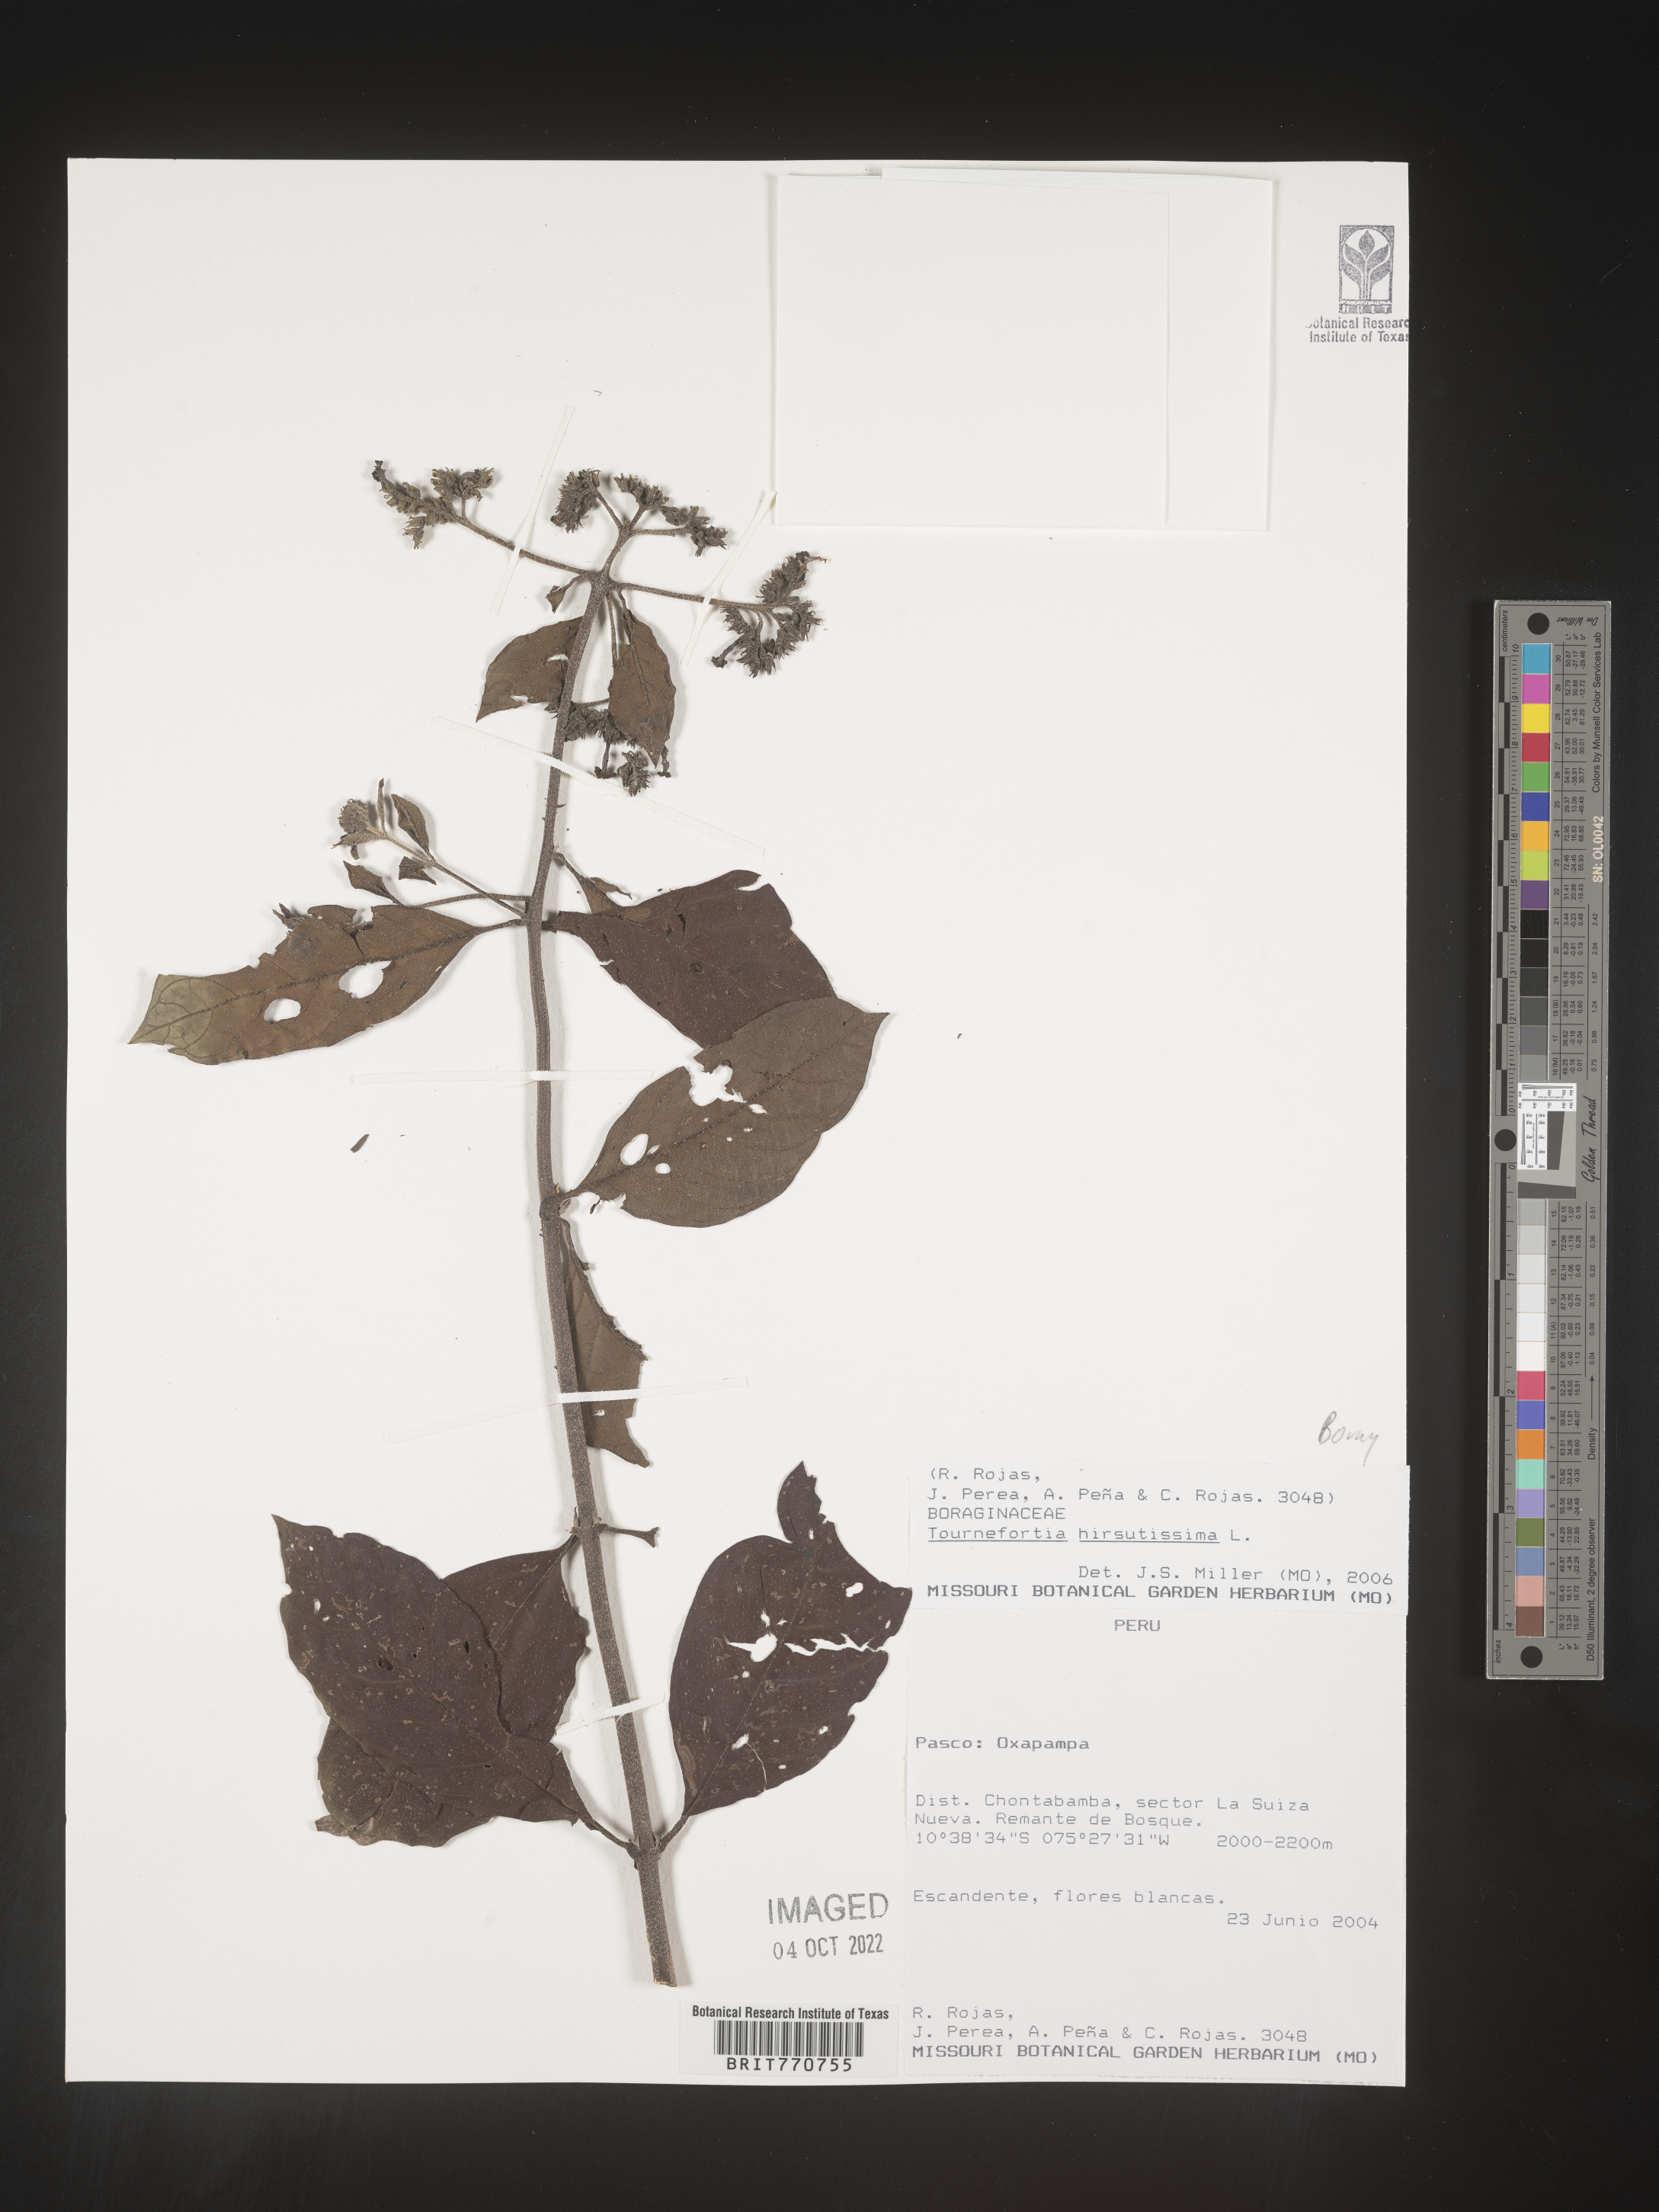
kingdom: Plantae
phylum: Tracheophyta
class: Magnoliopsida
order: Boraginales
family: Heliotropiaceae
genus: Tournefortia
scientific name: Tournefortia
